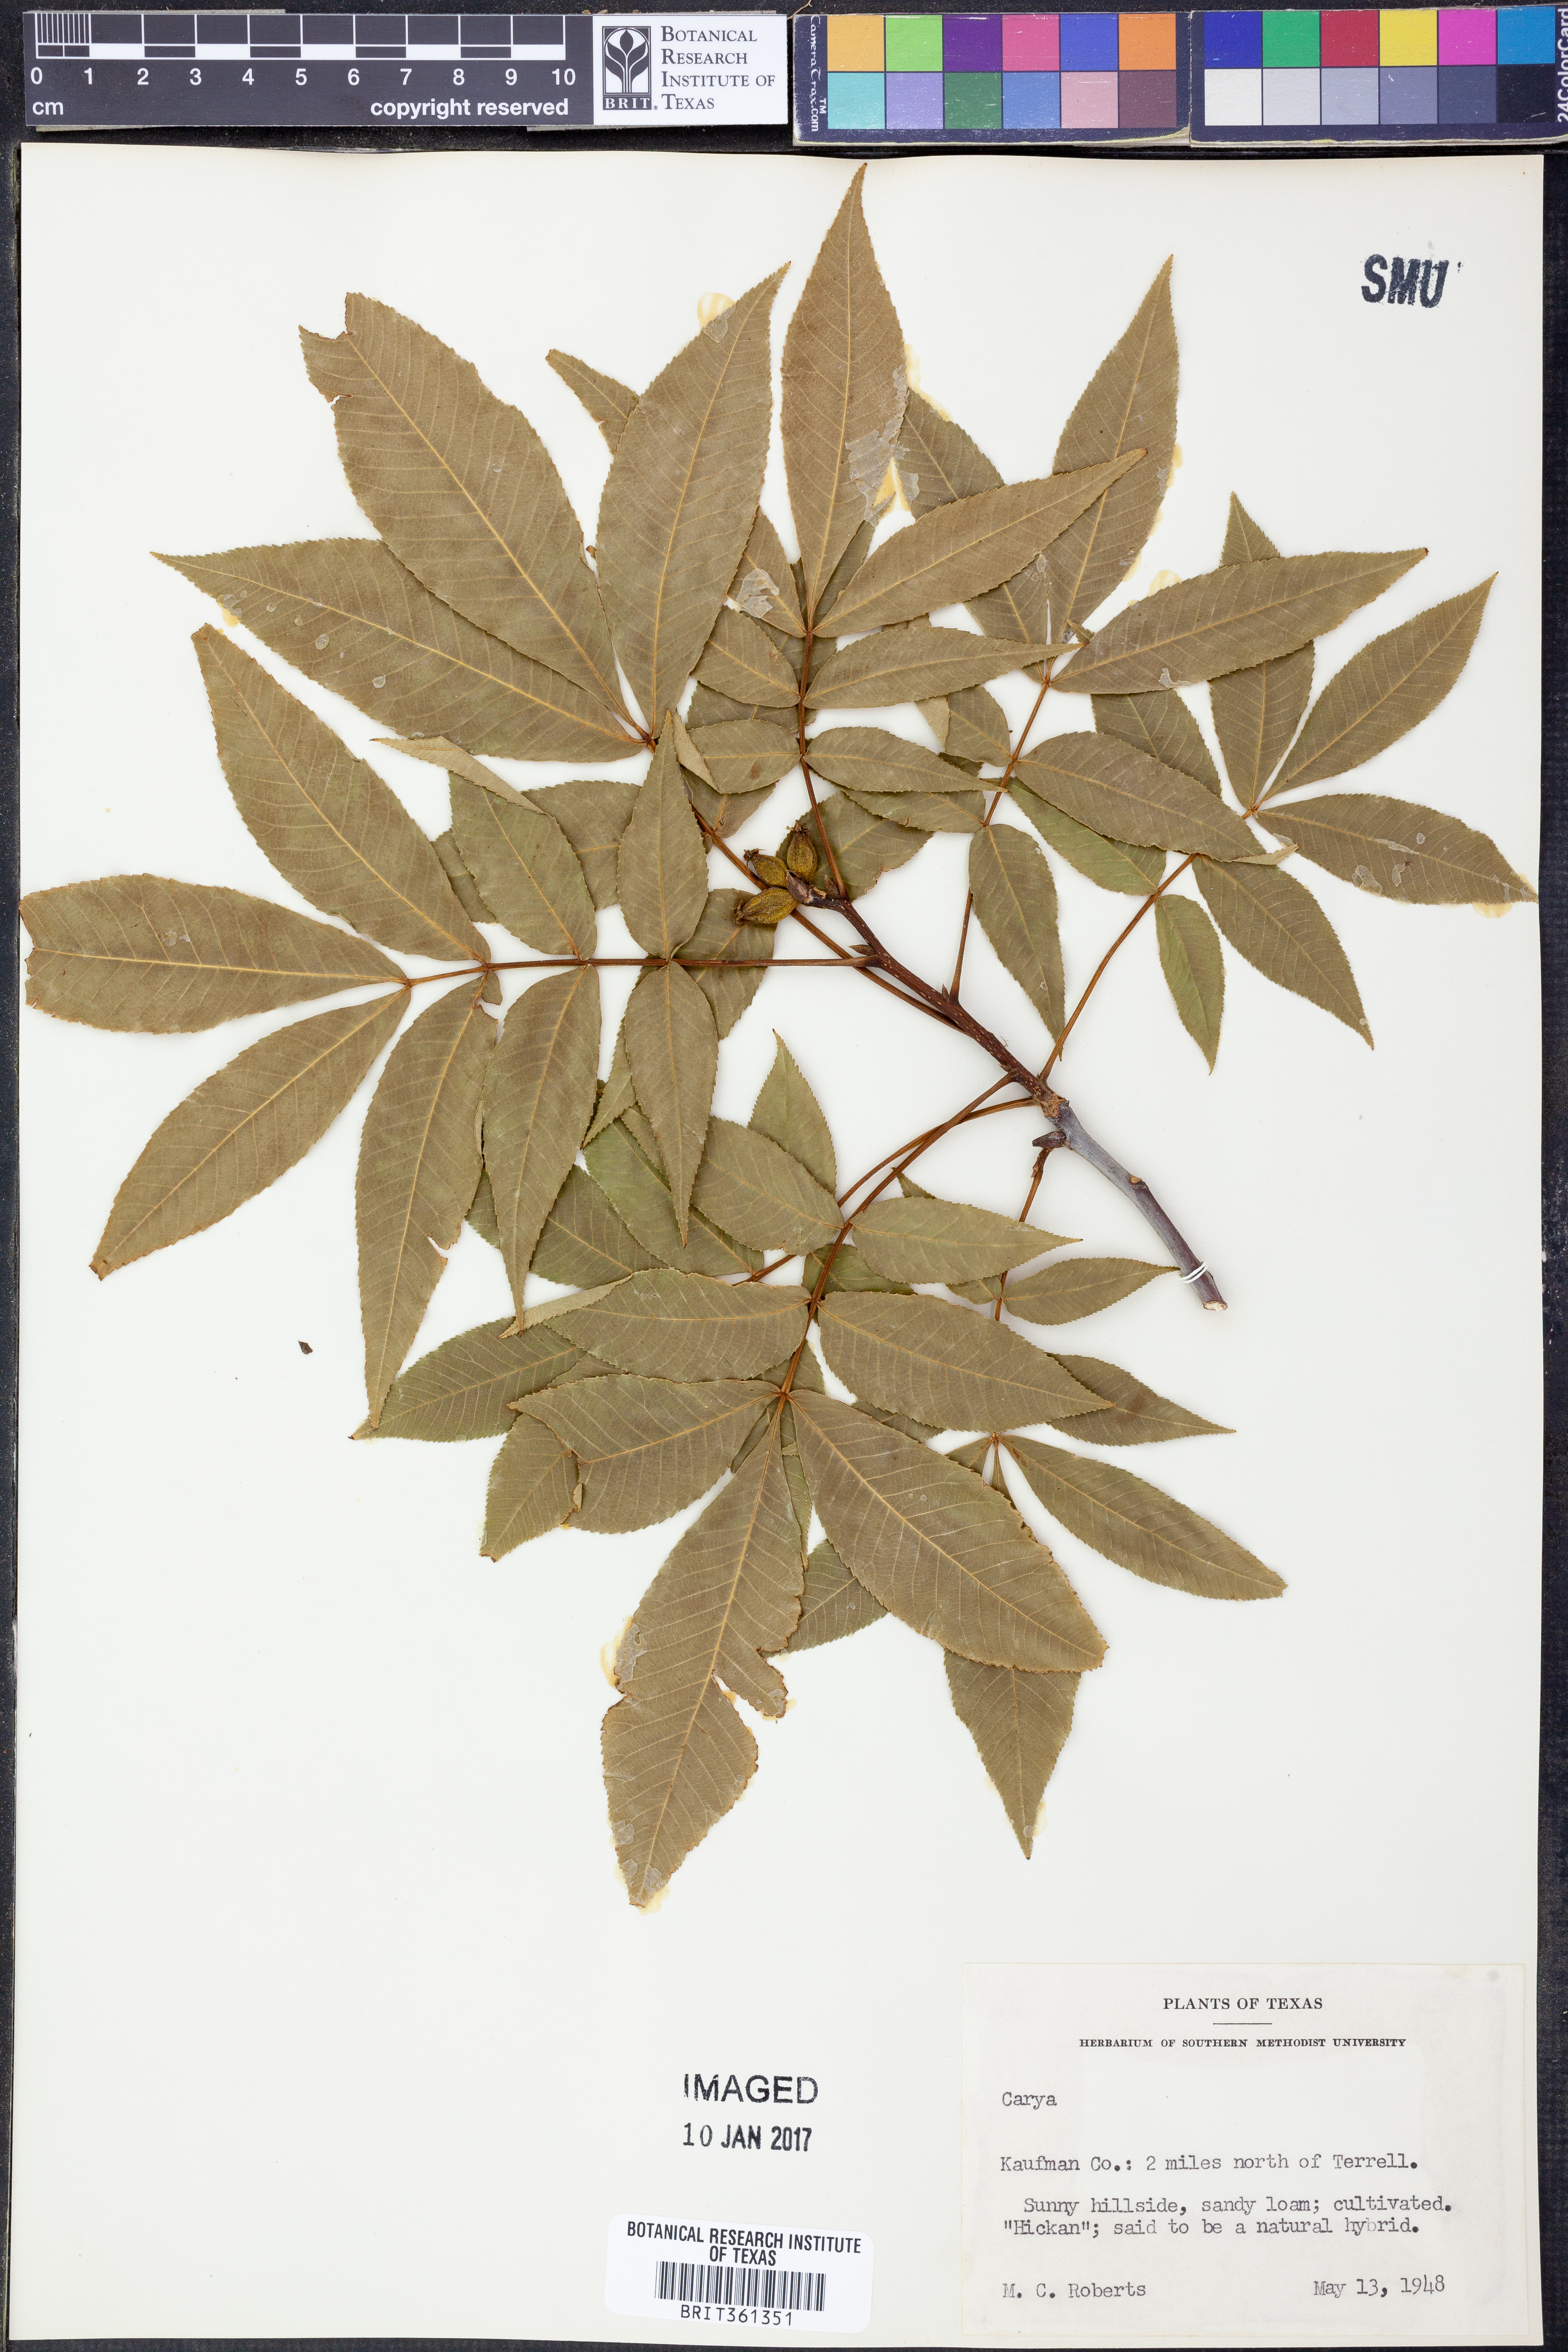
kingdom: Plantae
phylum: Tracheophyta
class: Magnoliopsida
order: Fagales
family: Juglandaceae
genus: Carya
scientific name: Carya
